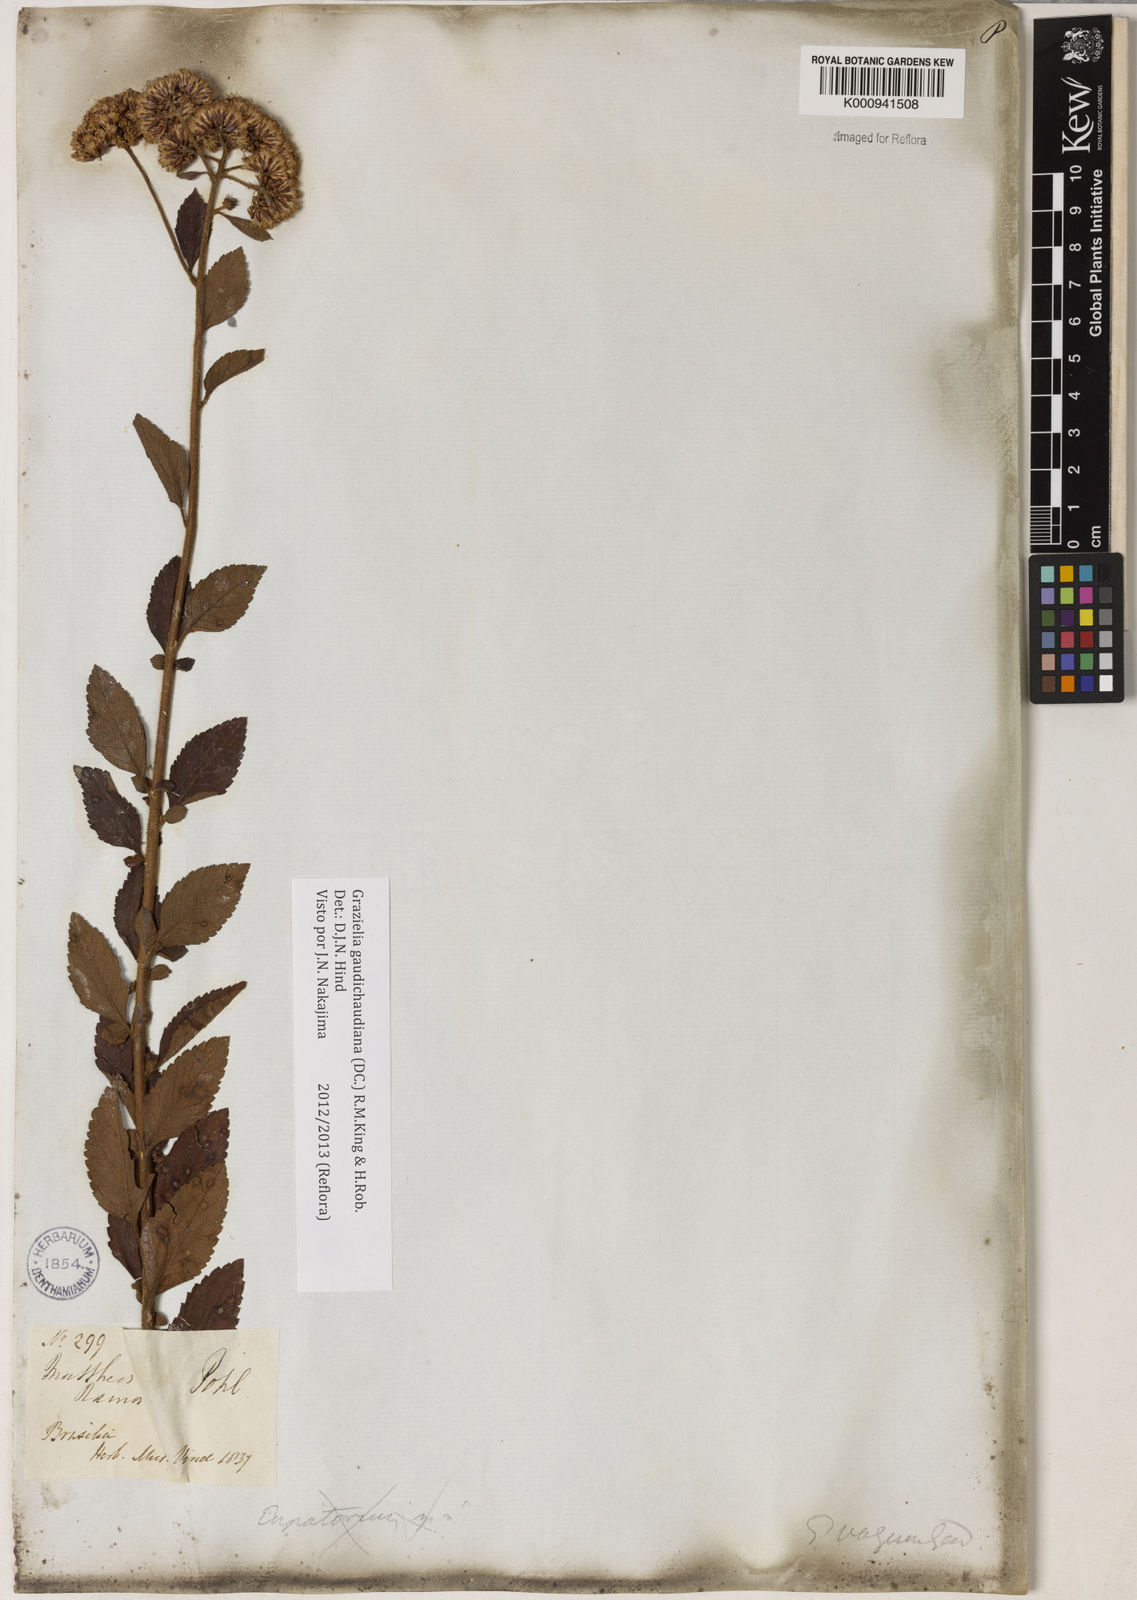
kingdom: Plantae
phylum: Tracheophyta
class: Magnoliopsida
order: Asterales
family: Asteraceae
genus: Grazielia
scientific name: Grazielia
